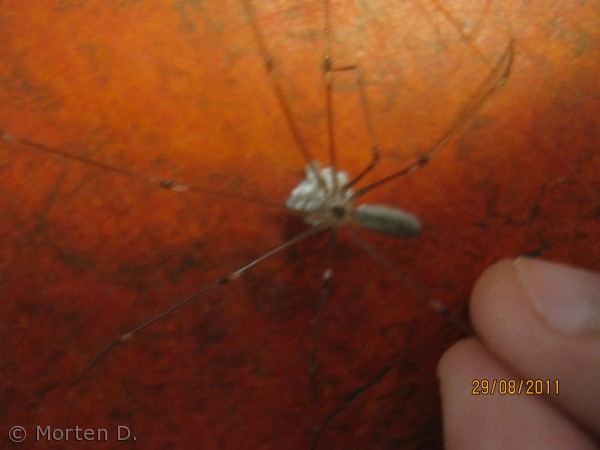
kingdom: Animalia
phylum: Arthropoda
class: Arachnida
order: Araneae
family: Pholcidae
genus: Pholcus
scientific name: Pholcus phalangioides
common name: Mejeredderkop
